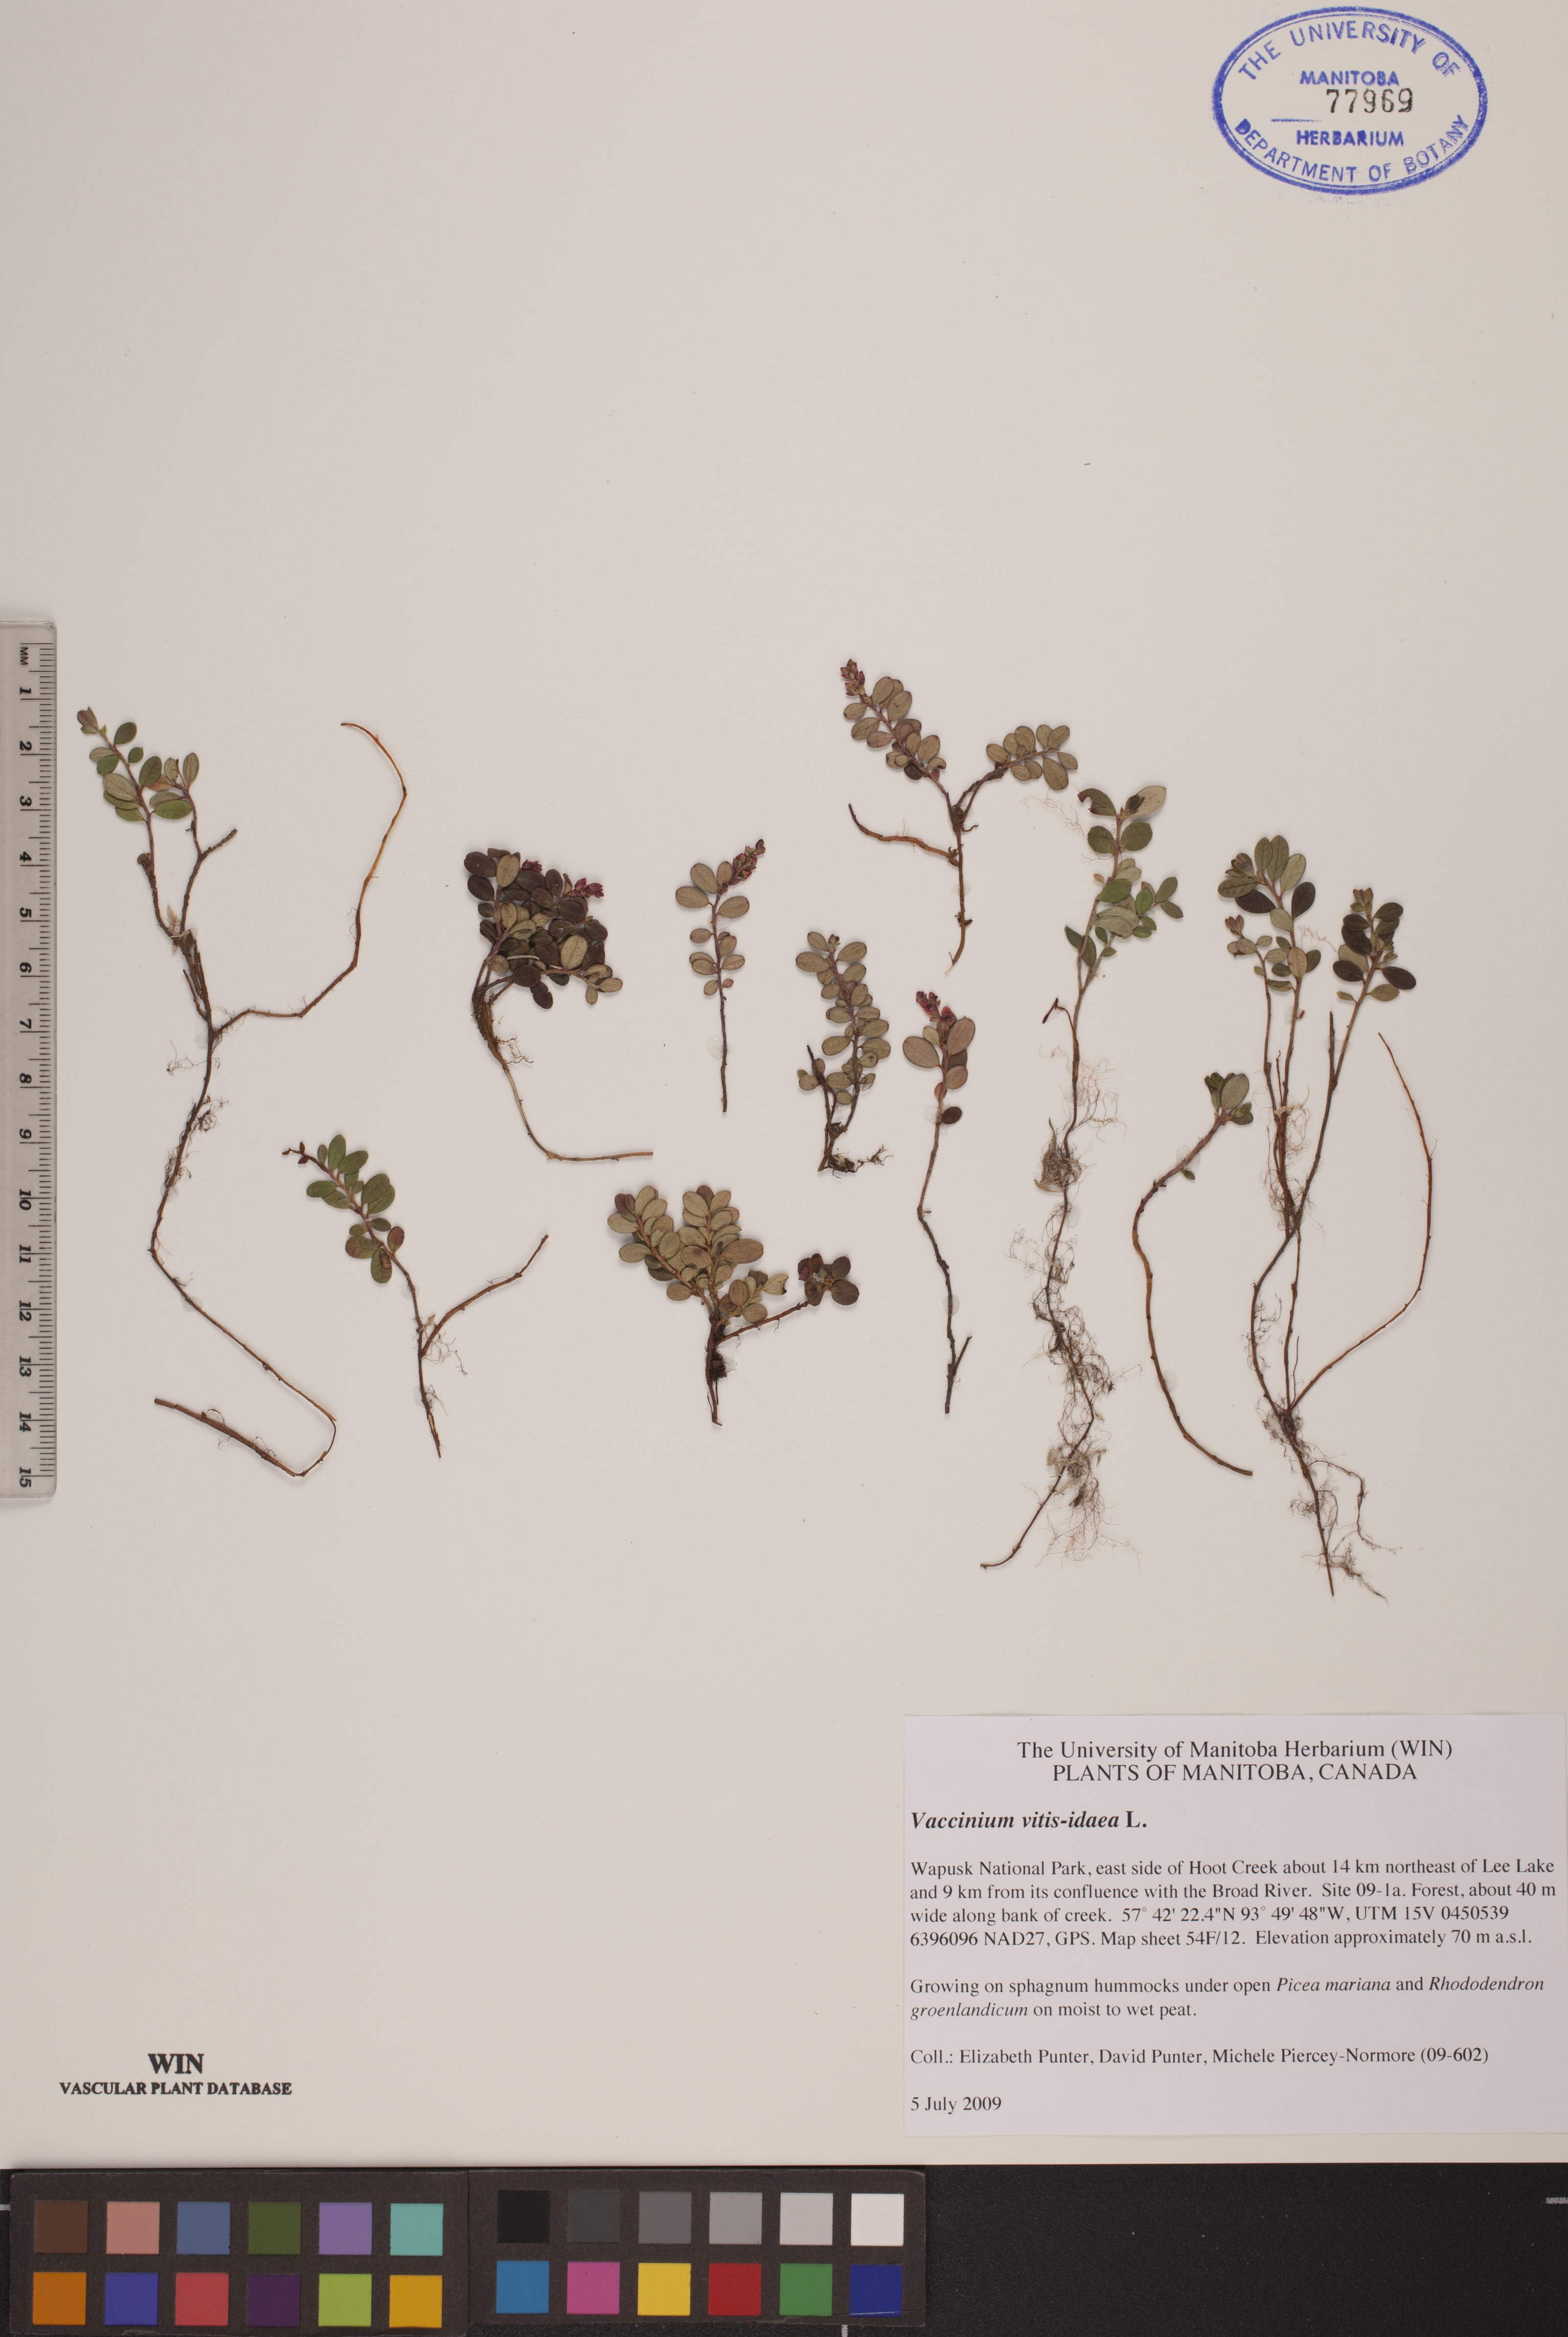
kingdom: Plantae
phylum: Tracheophyta
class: Magnoliopsida
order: Ericales
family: Ericaceae
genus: Vaccinium
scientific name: Vaccinium vitis-idaea
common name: Cowberry
